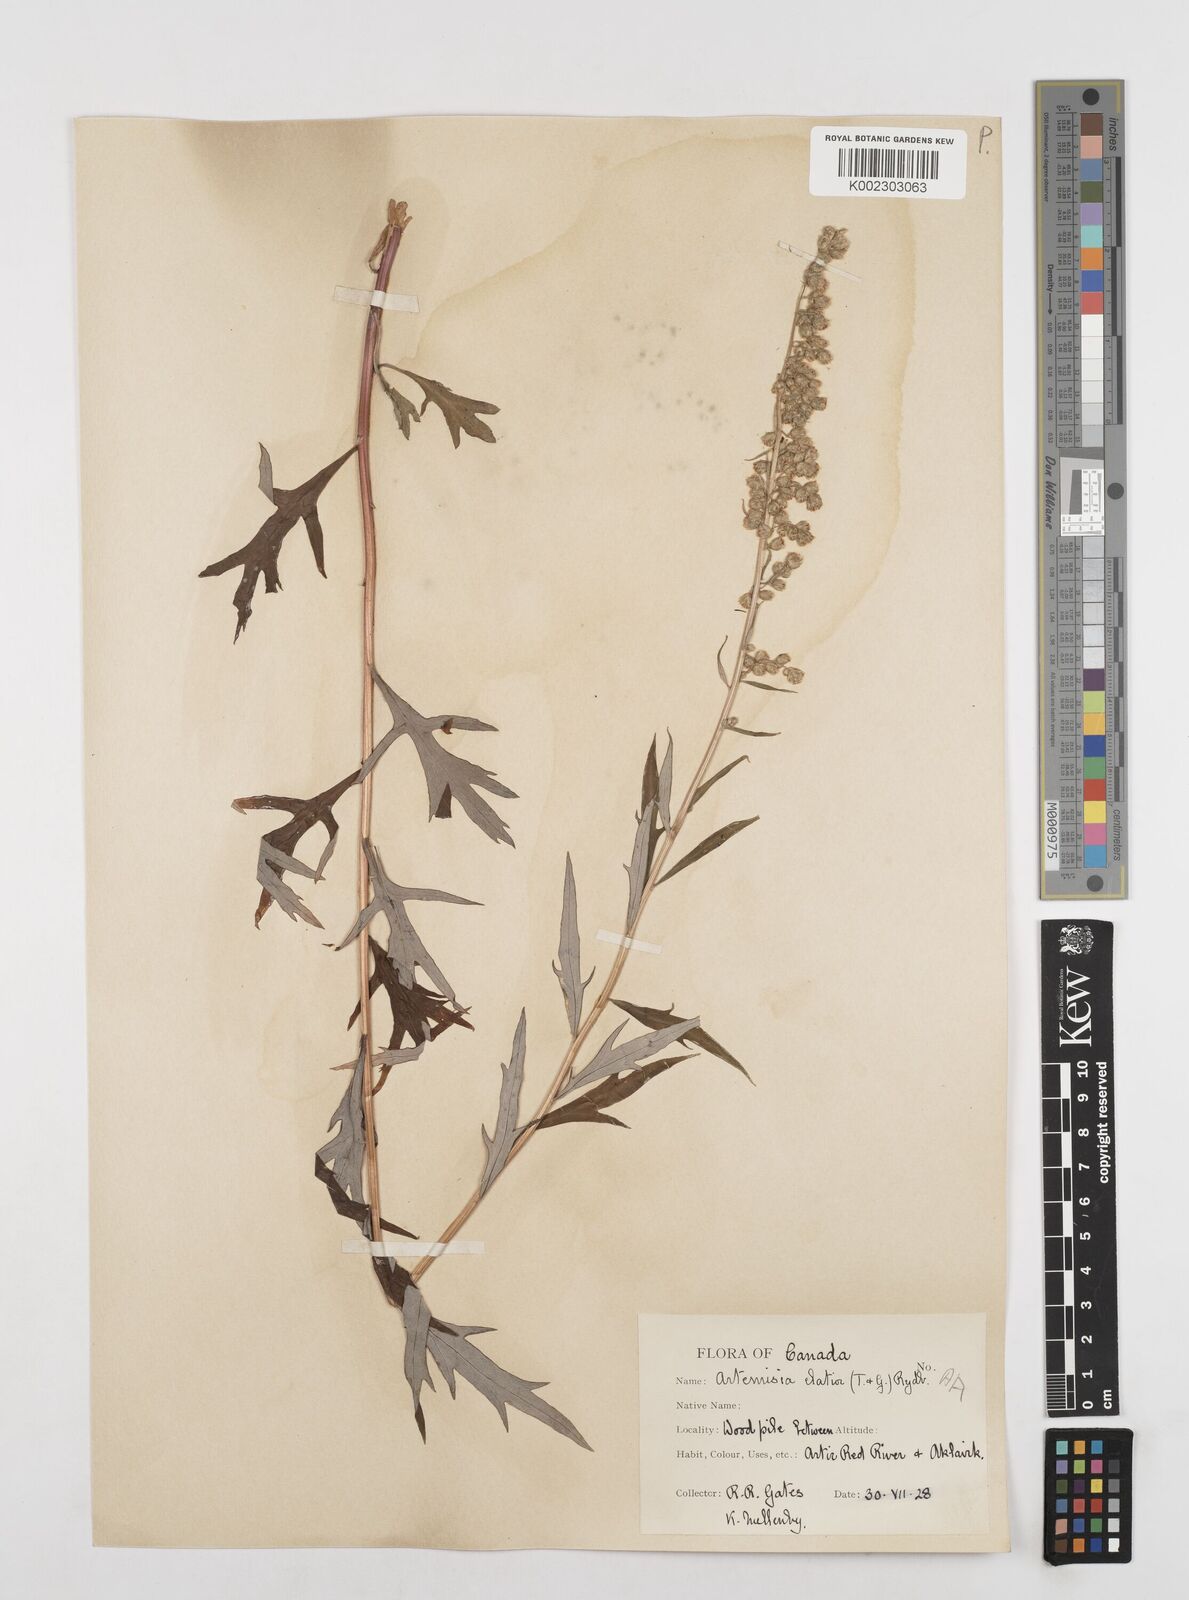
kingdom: Plantae
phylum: Tracheophyta
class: Magnoliopsida
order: Asterales
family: Asteraceae
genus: Artemisia
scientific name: Artemisia tilesii
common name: Aleutian mugwort
